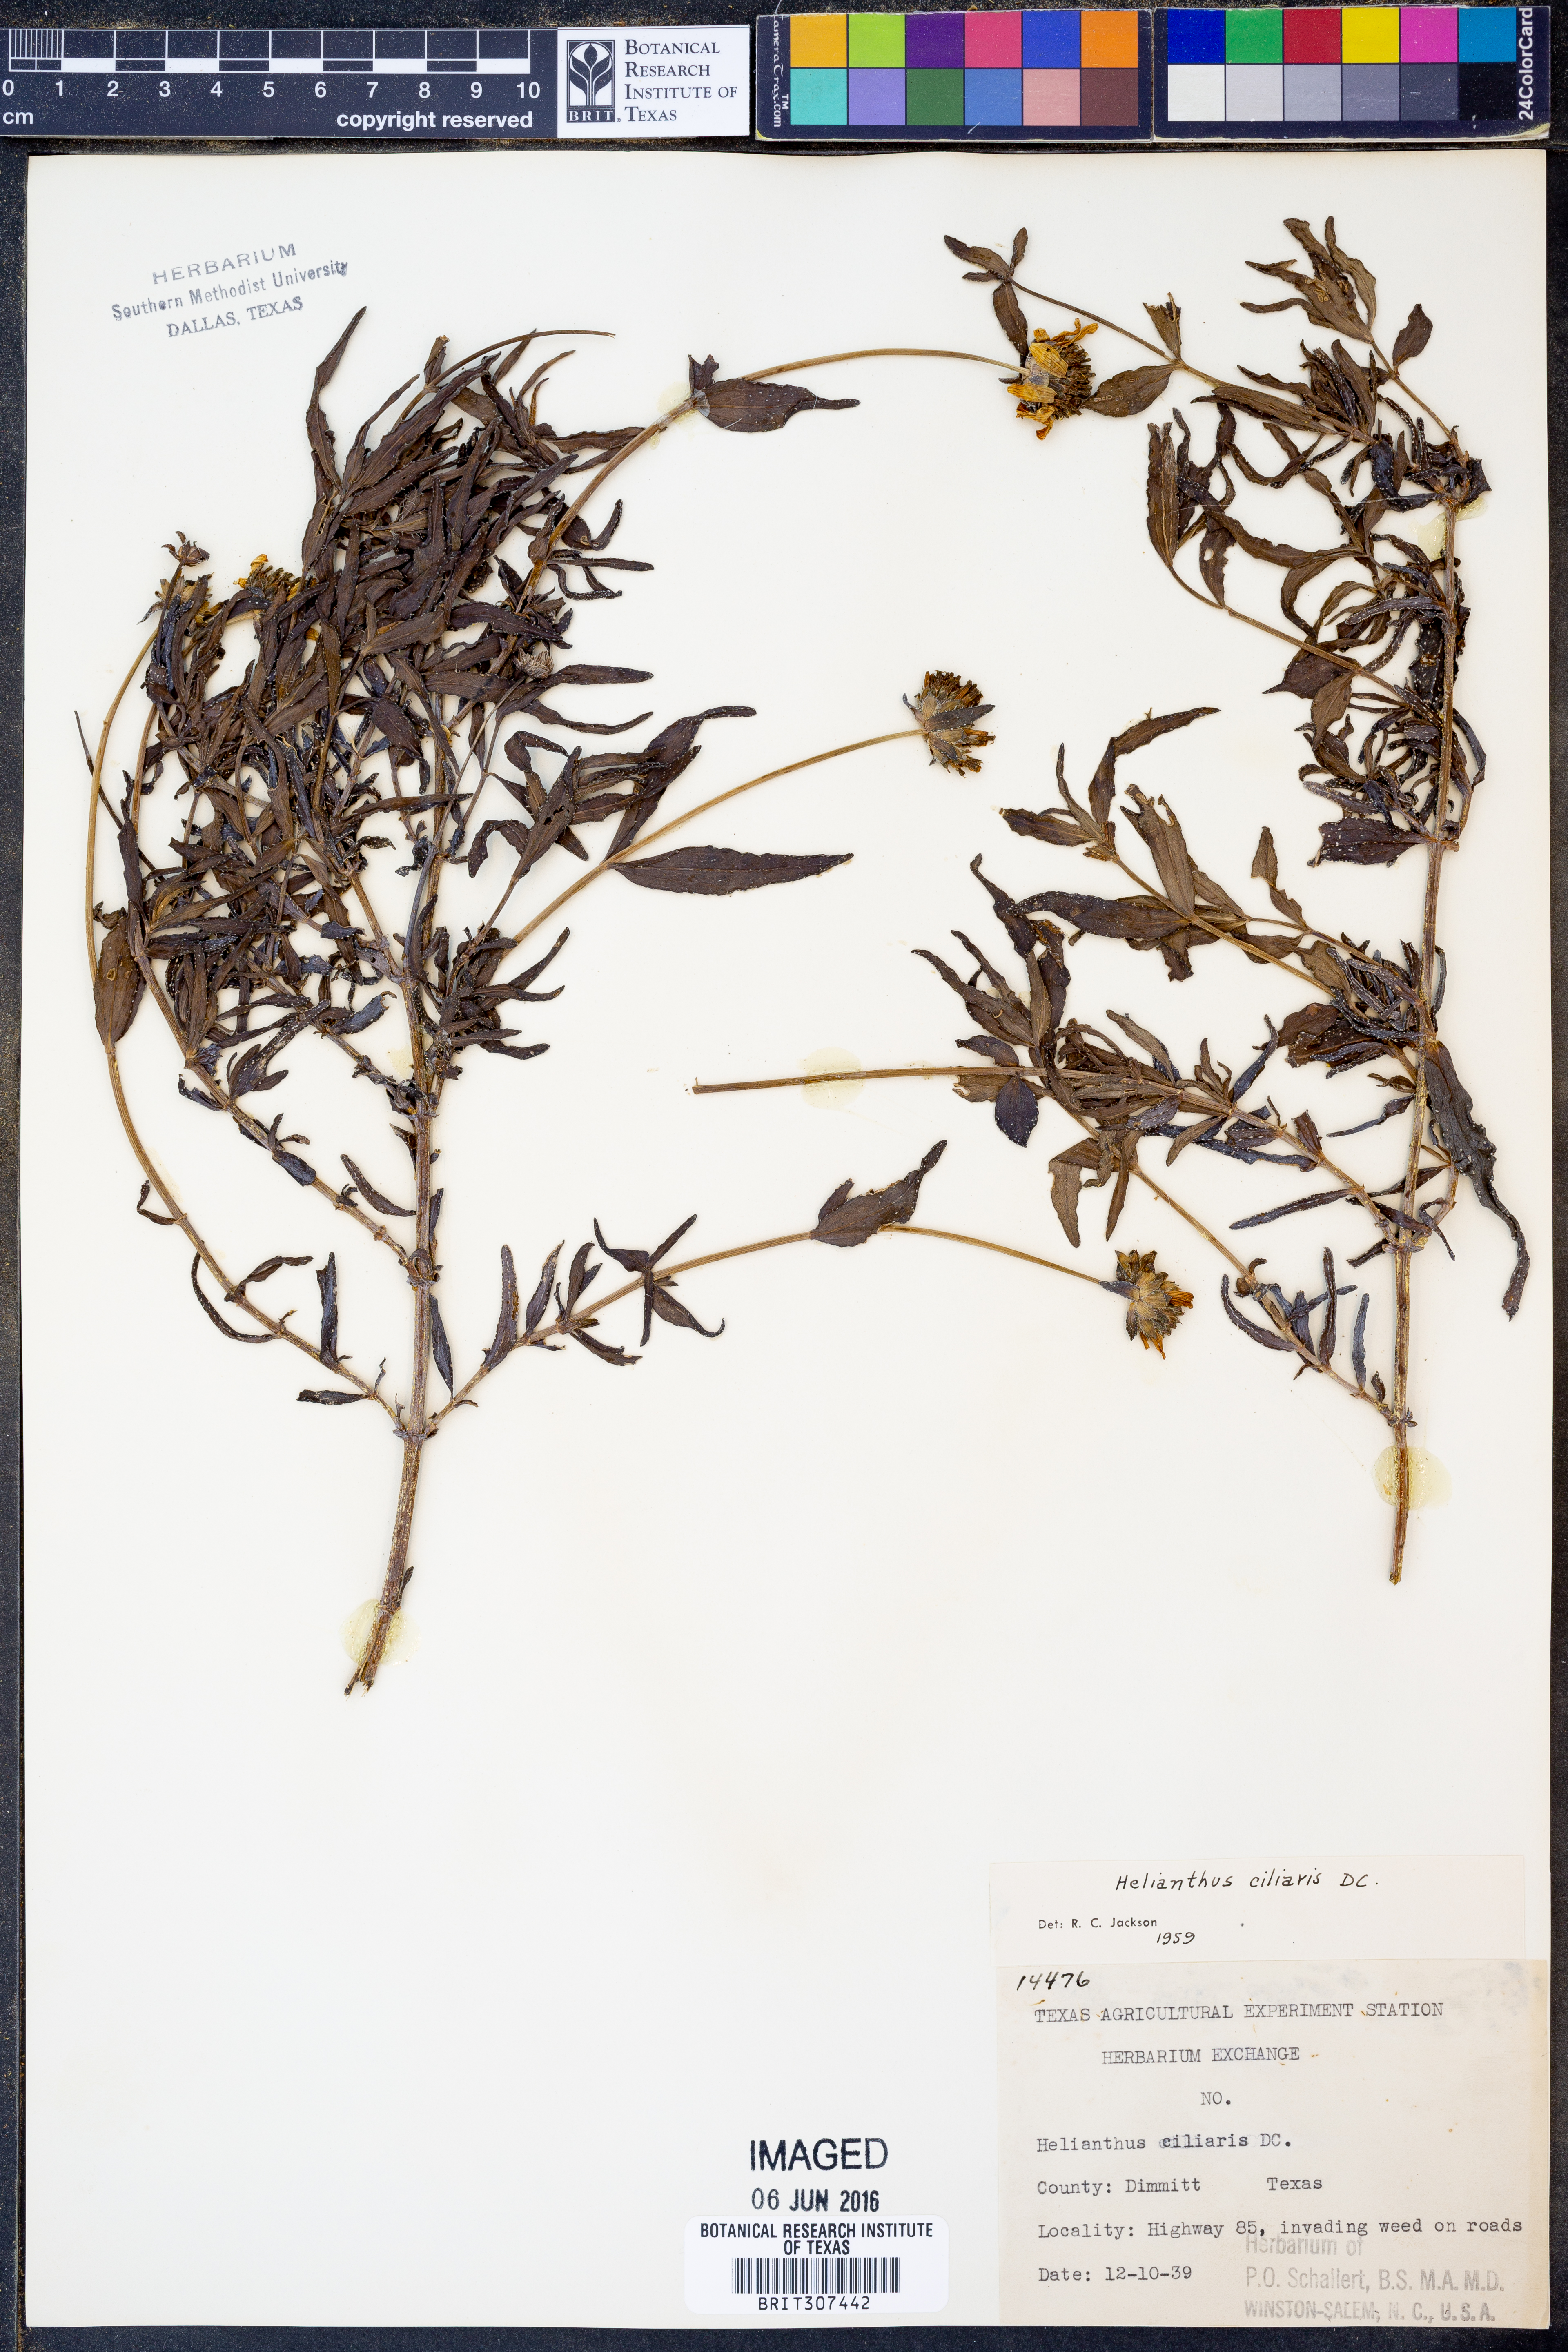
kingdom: Plantae
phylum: Tracheophyta
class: Magnoliopsida
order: Asterales
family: Asteraceae
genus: Helianthus
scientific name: Helianthus ciliaris
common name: Texas blueweed
